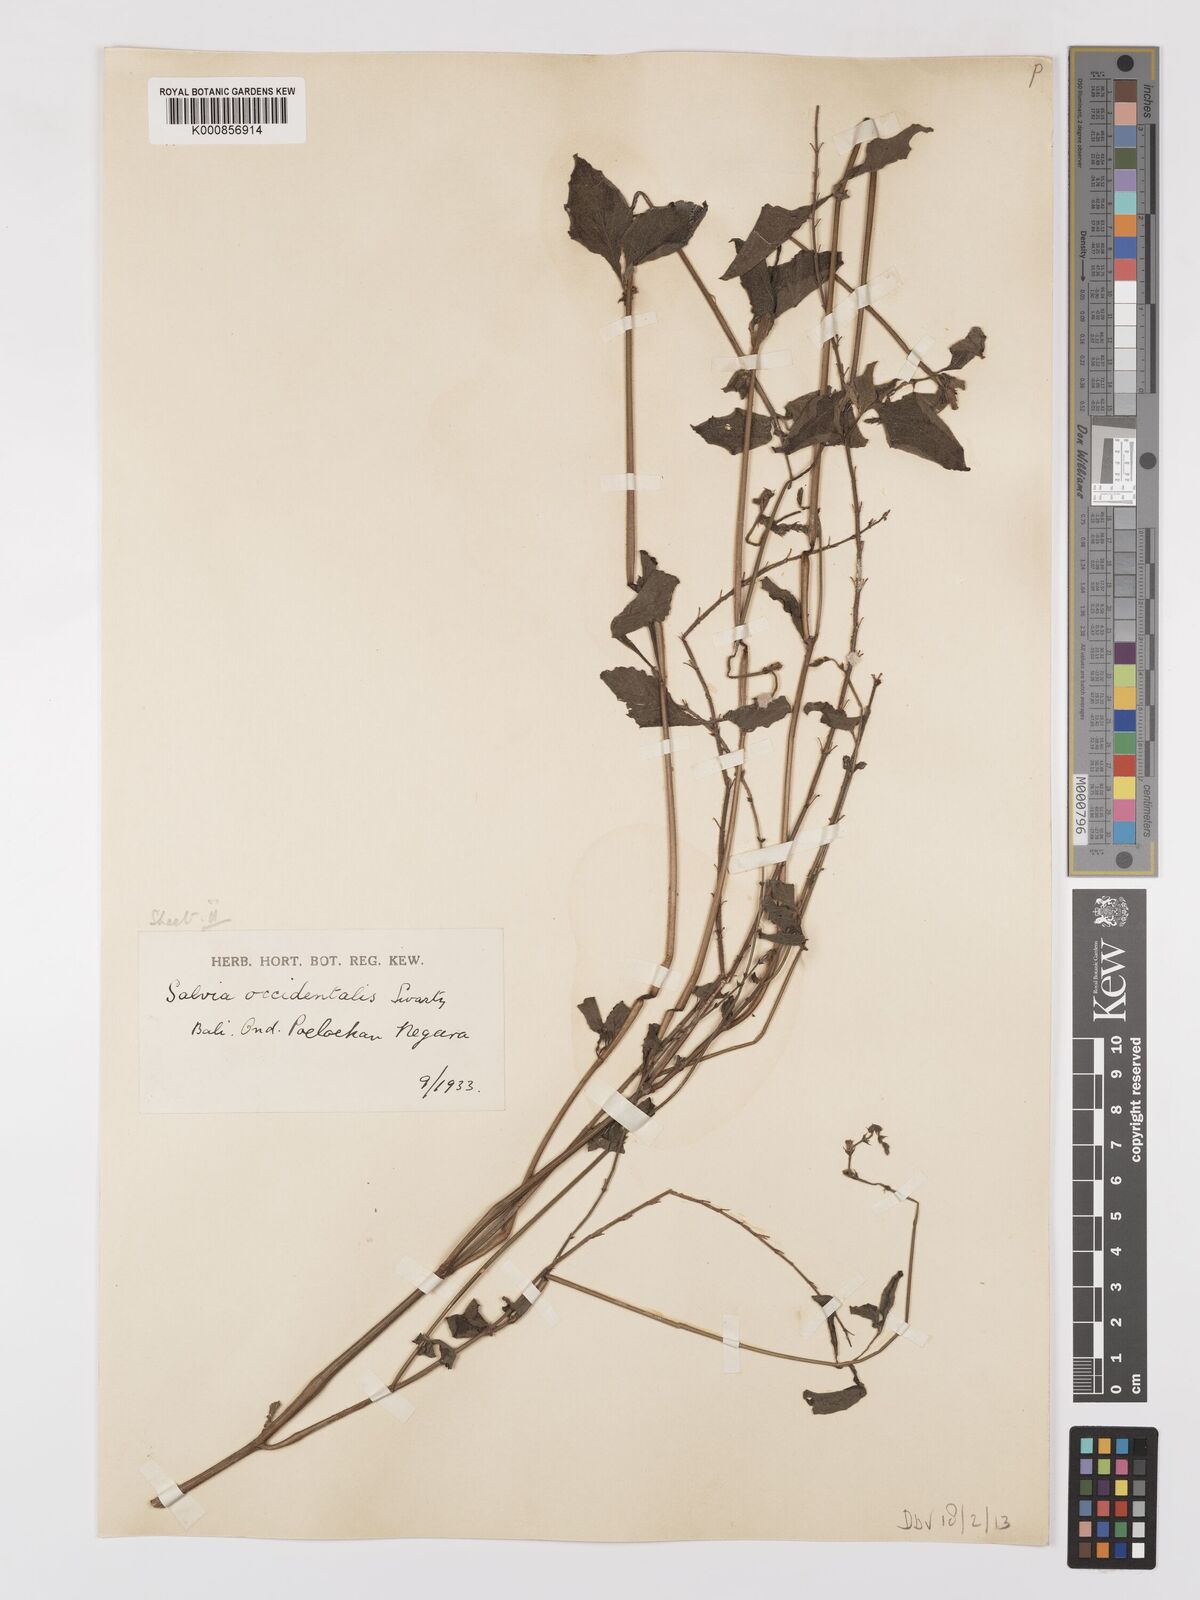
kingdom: Plantae
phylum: Tracheophyta
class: Magnoliopsida
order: Lamiales
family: Lamiaceae
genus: Salvia
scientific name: Salvia
